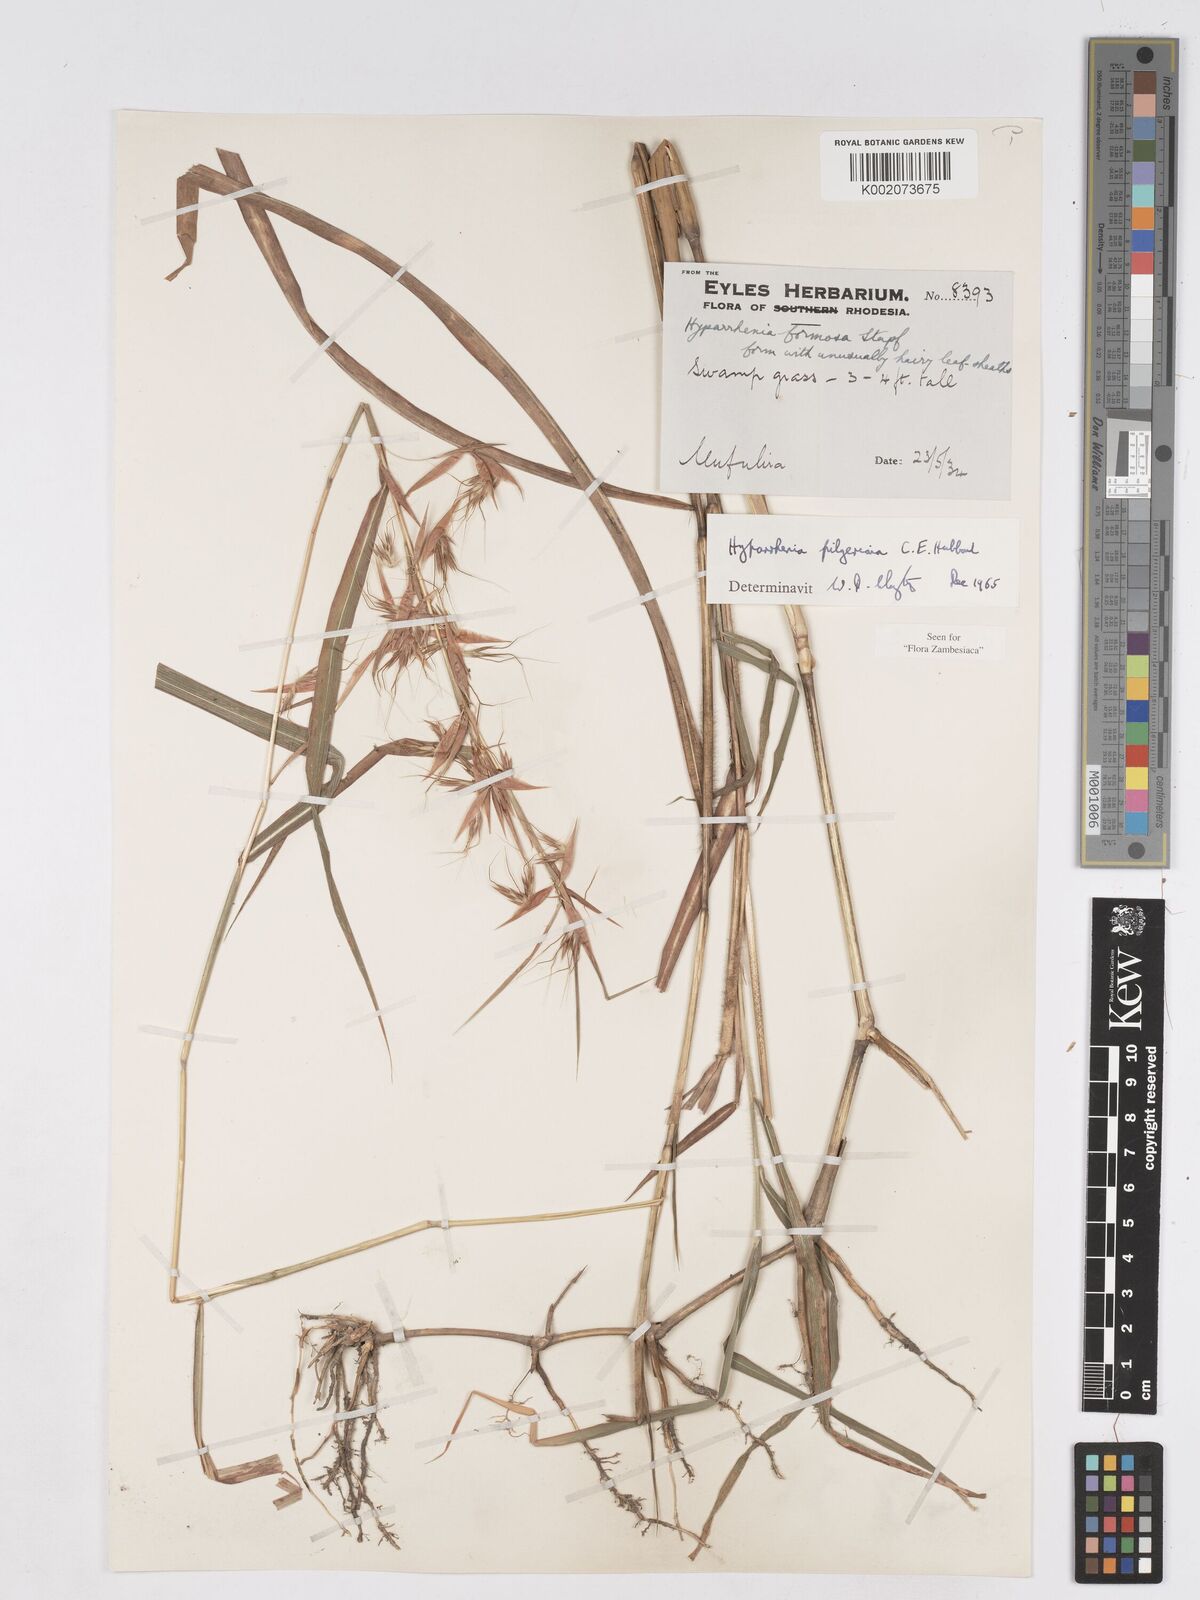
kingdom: Plantae
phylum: Tracheophyta
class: Liliopsida
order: Poales
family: Poaceae
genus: Hyparrhenia
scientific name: Hyparrhenia pilgeriana
